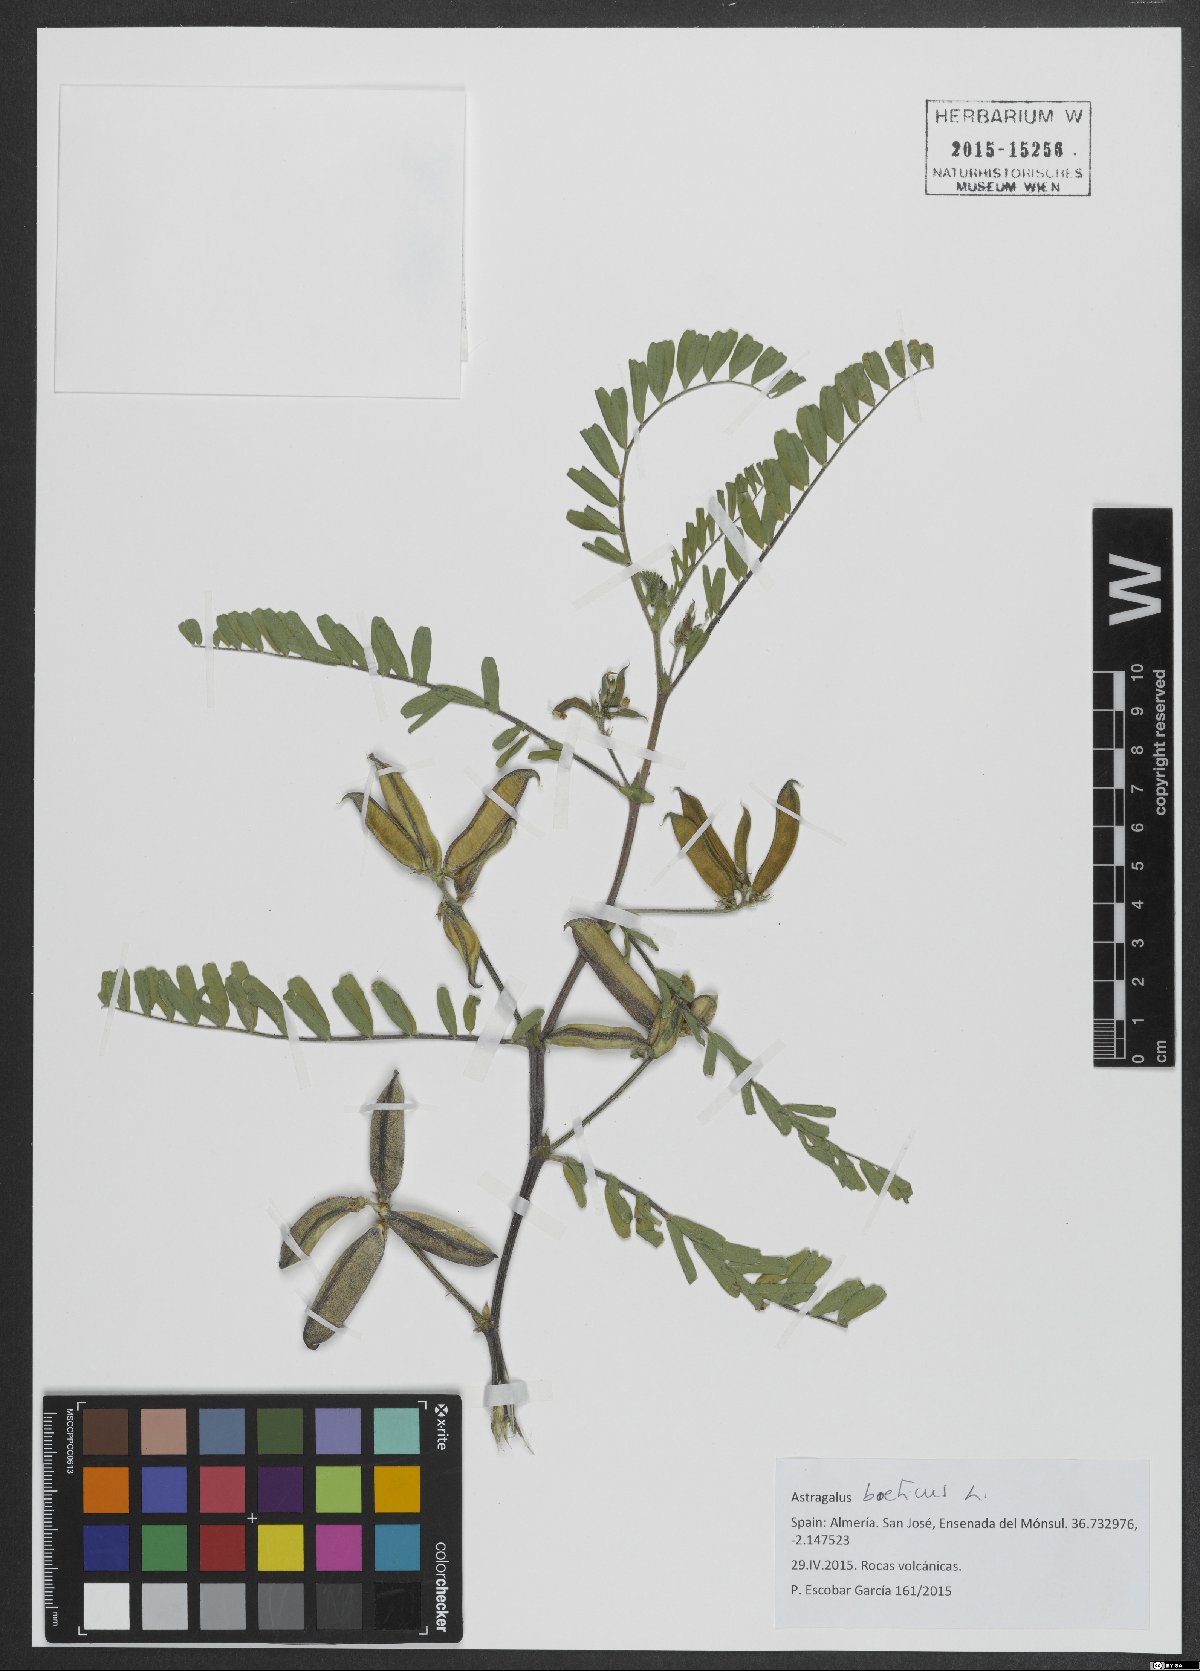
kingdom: Plantae
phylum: Tracheophyta
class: Magnoliopsida
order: Fabales
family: Fabaceae
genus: Astragalus
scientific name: Astragalus boeticus
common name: Milk-vetch
